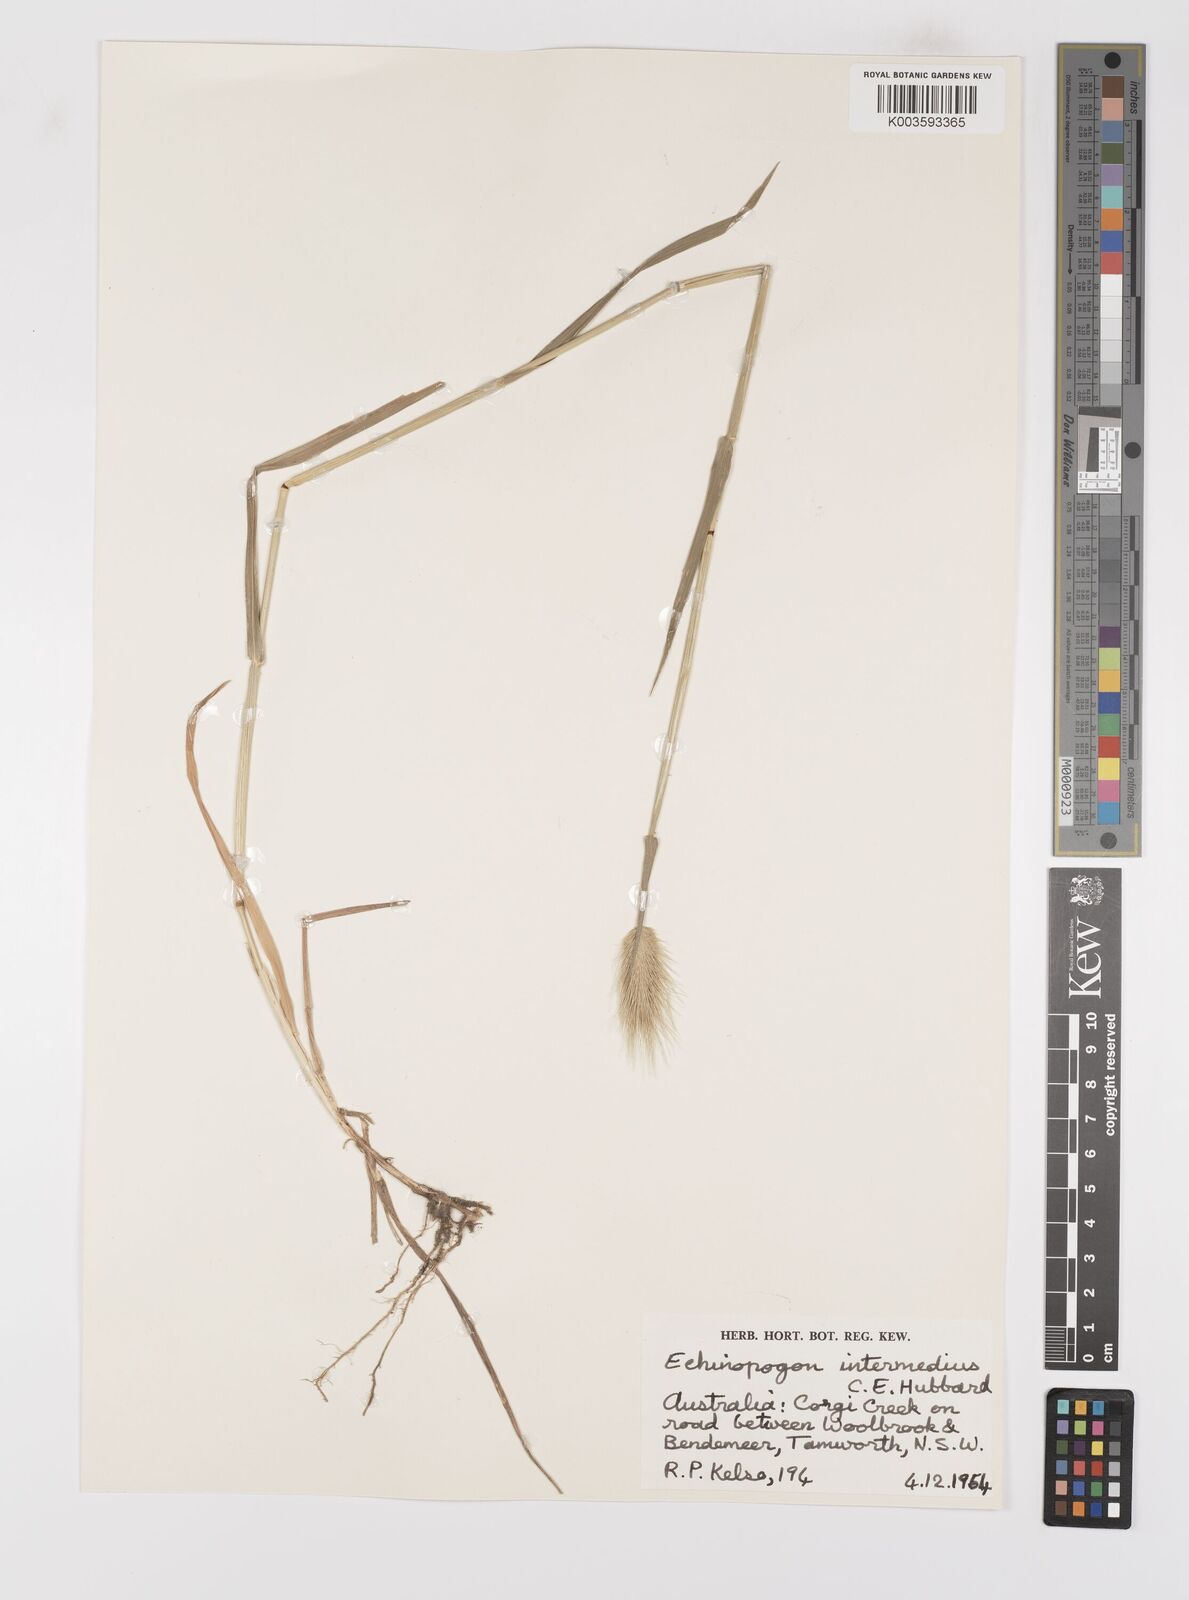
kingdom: Plantae
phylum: Tracheophyta
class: Liliopsida
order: Poales
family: Poaceae
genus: Echinopogon
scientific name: Echinopogon intermedius
